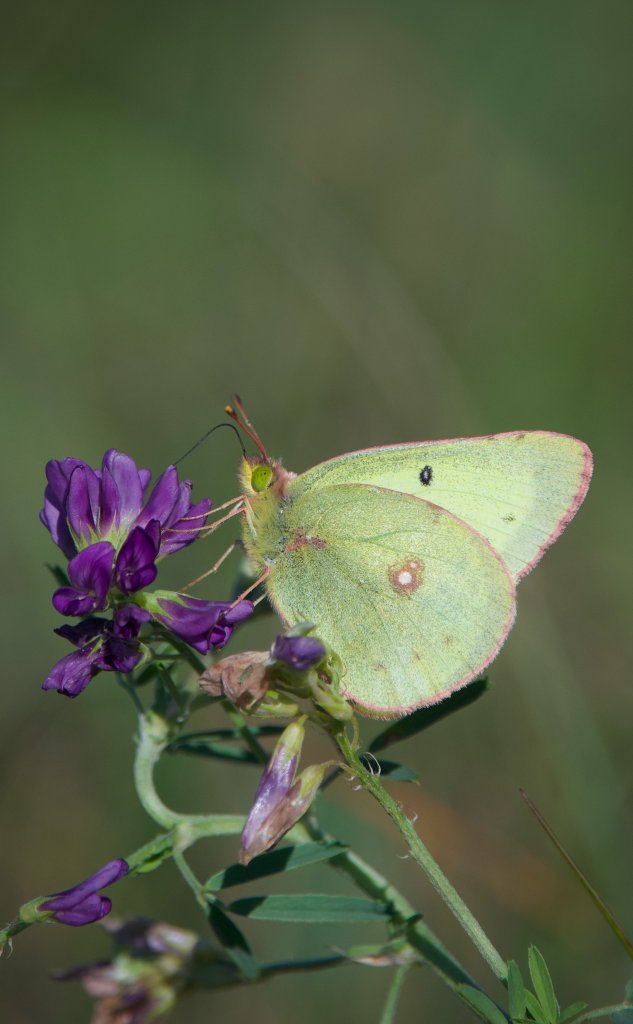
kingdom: Animalia
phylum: Arthropoda
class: Insecta
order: Lepidoptera
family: Pieridae
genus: Colias
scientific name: Colias philodice
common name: Clouded Sulphur
